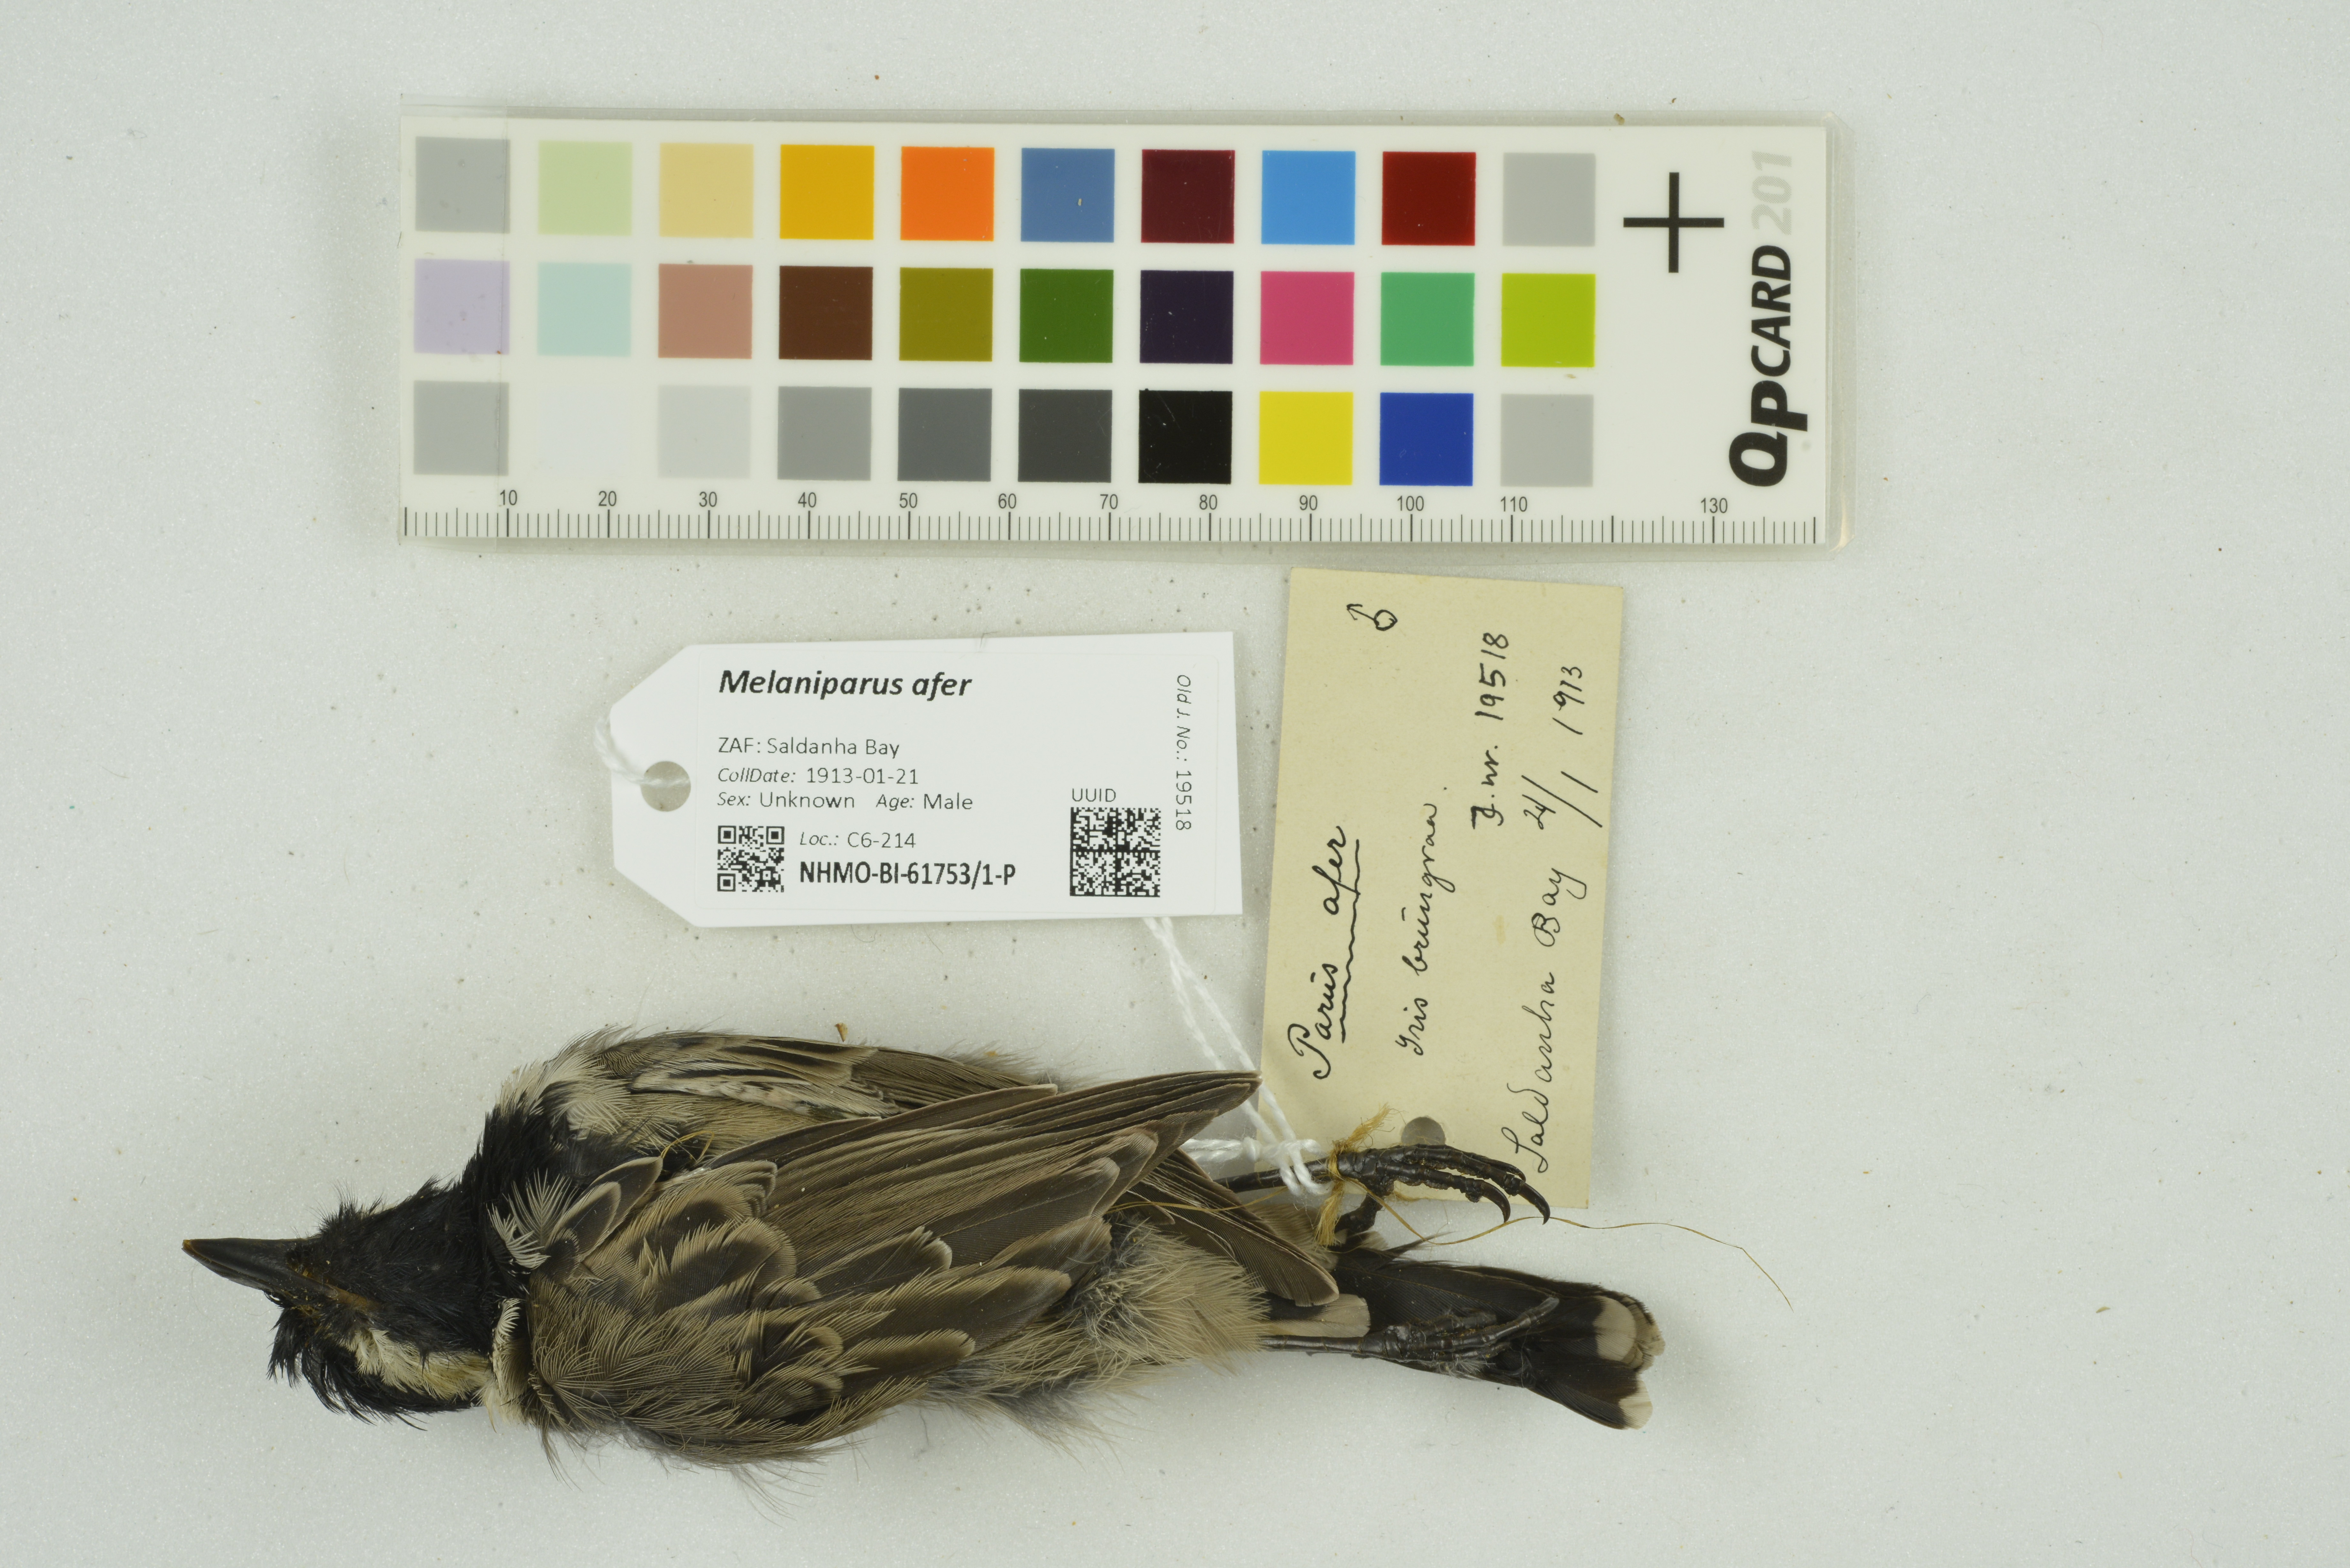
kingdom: Animalia
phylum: Chordata
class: Aves
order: Passeriformes
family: Paridae
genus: Parus
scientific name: Parus afer
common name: Grey tit
